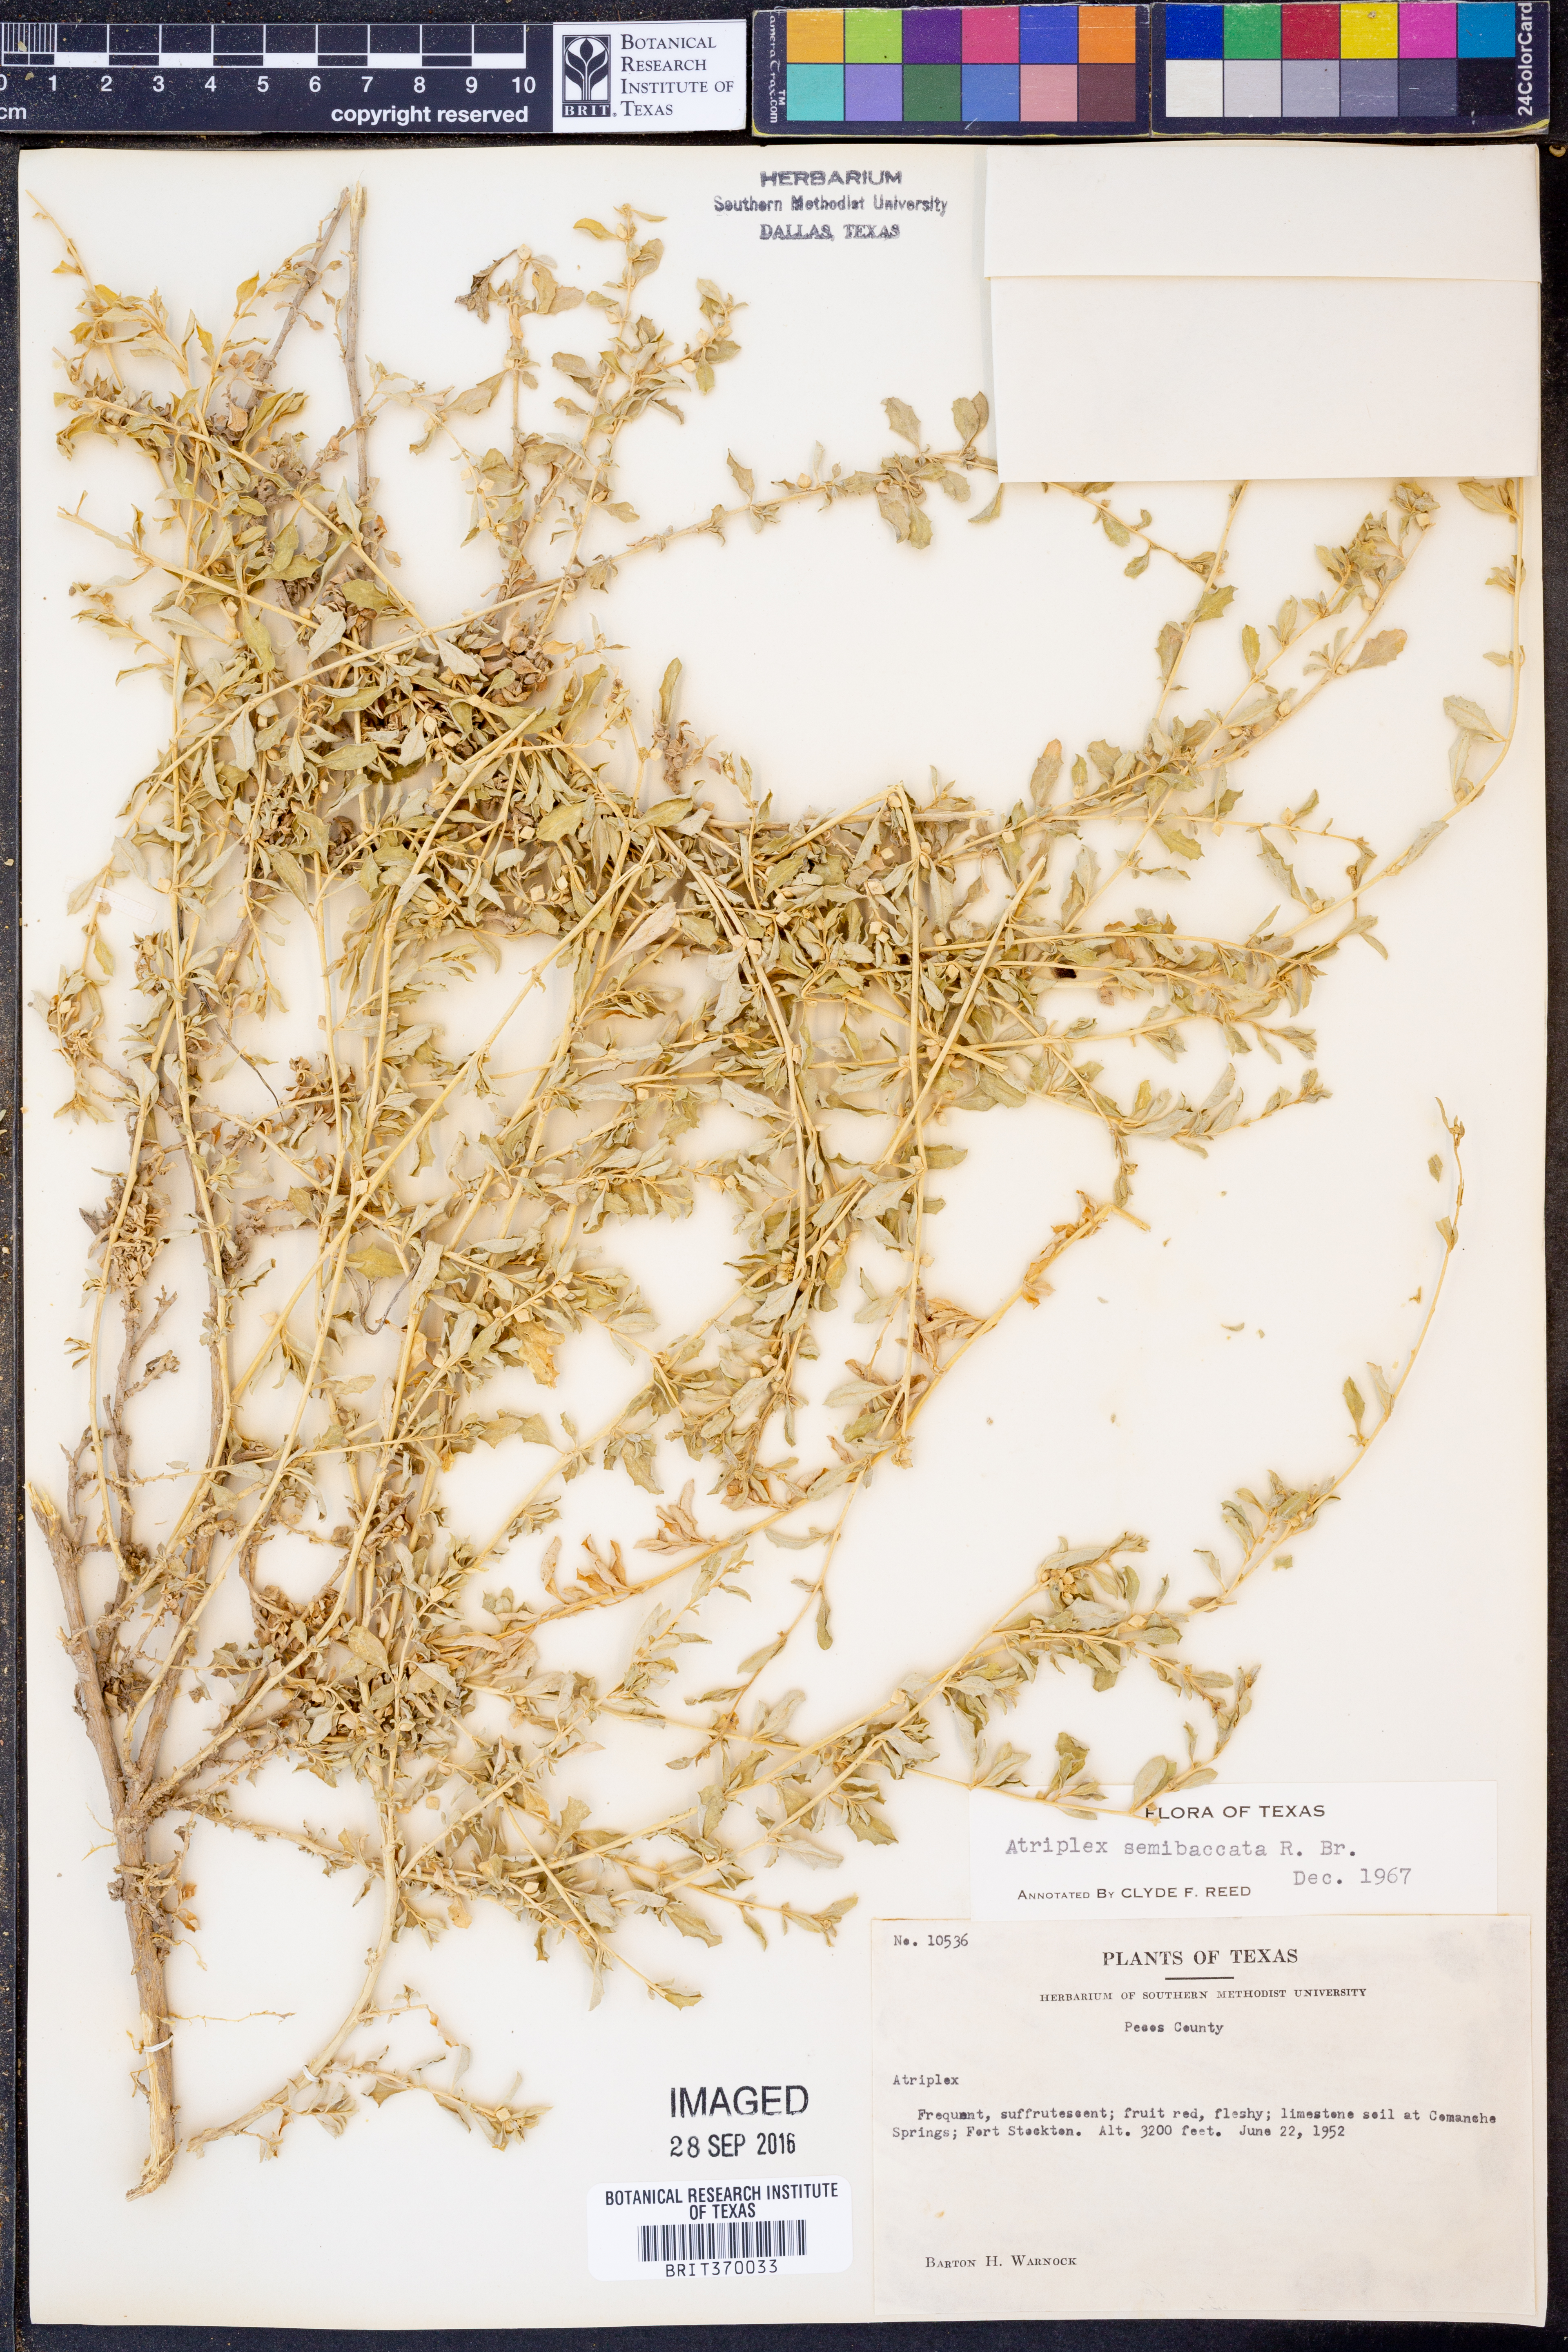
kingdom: Plantae
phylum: Tracheophyta
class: Magnoliopsida
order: Caryophyllales
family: Amaranthaceae
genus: Atriplex
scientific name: Atriplex semibaccata
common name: Australian saltbush
